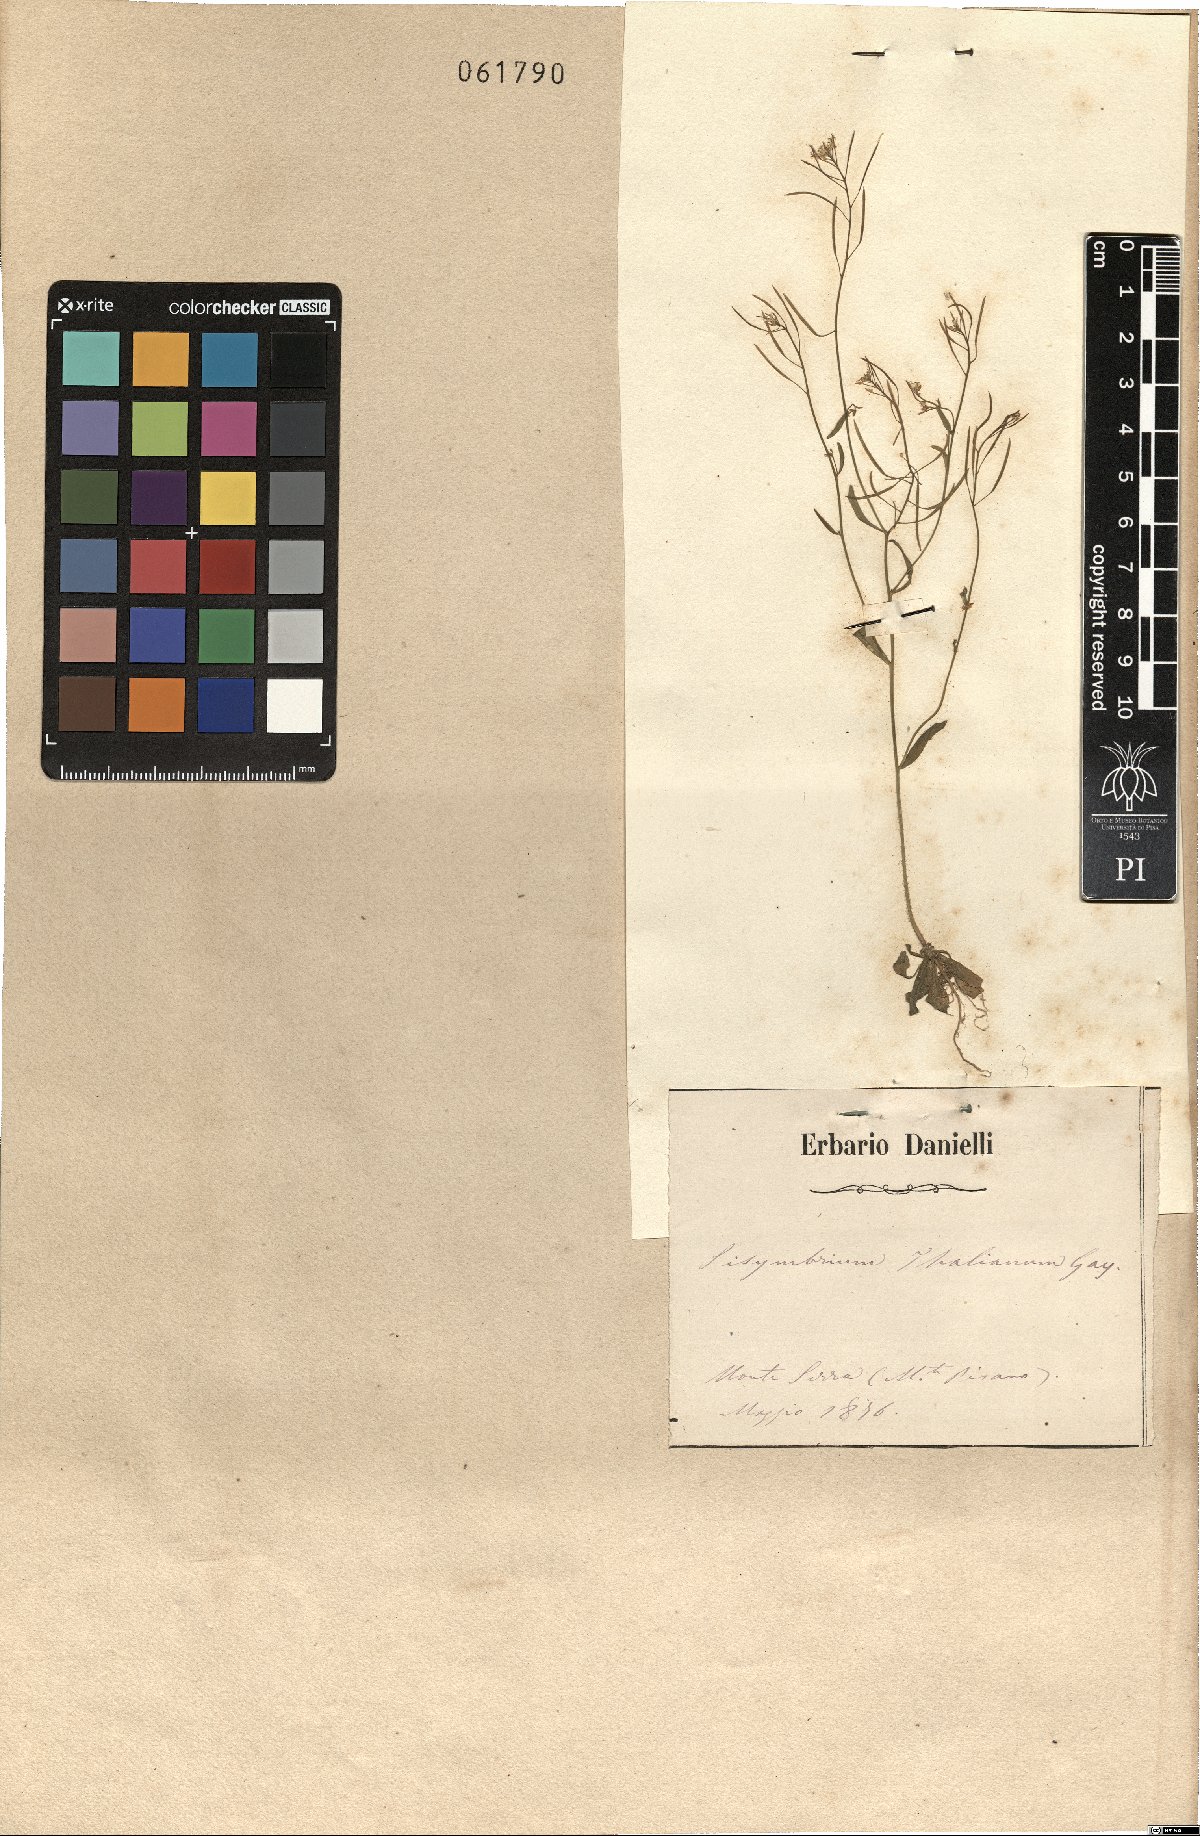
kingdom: Plantae
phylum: Tracheophyta
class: Magnoliopsida
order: Brassicales
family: Brassicaceae
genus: Arabidopsis
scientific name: Arabidopsis thaliana
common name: Thale cress
